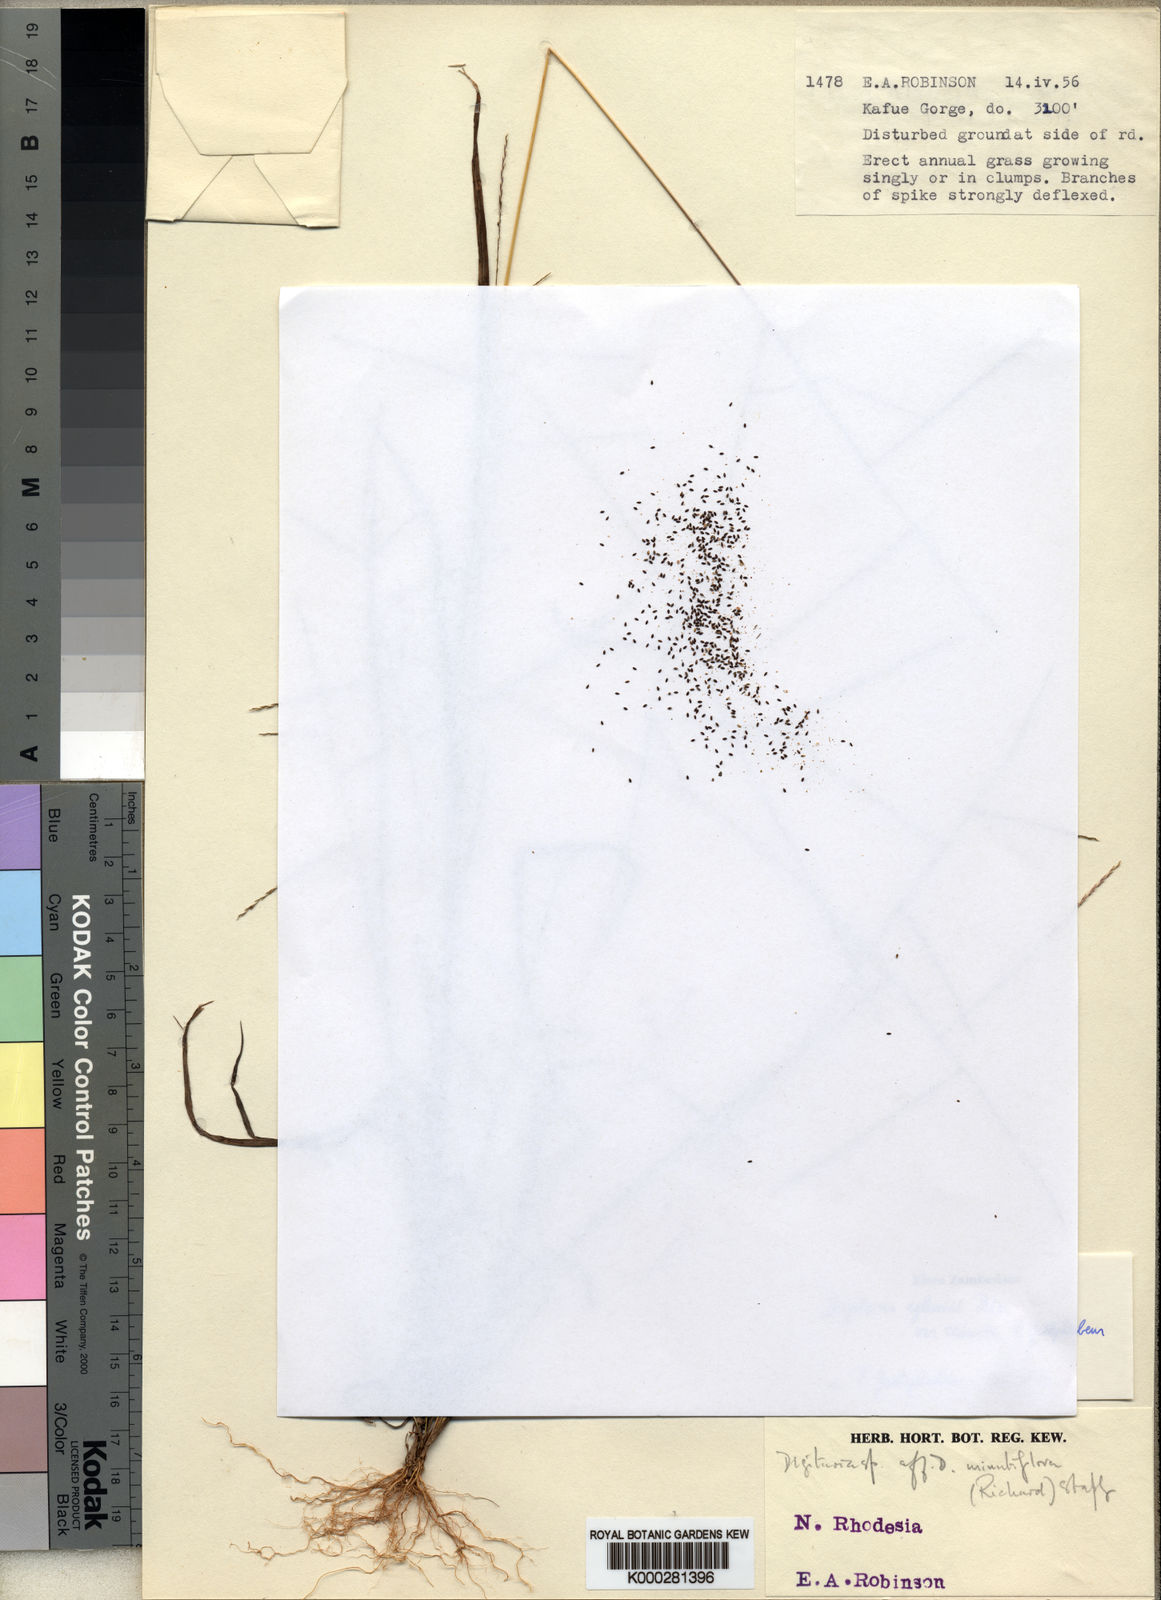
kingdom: Plantae
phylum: Tracheophyta
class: Liliopsida
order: Poales
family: Poaceae
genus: Digitaria
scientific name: Digitaria pseudodiagonalis
